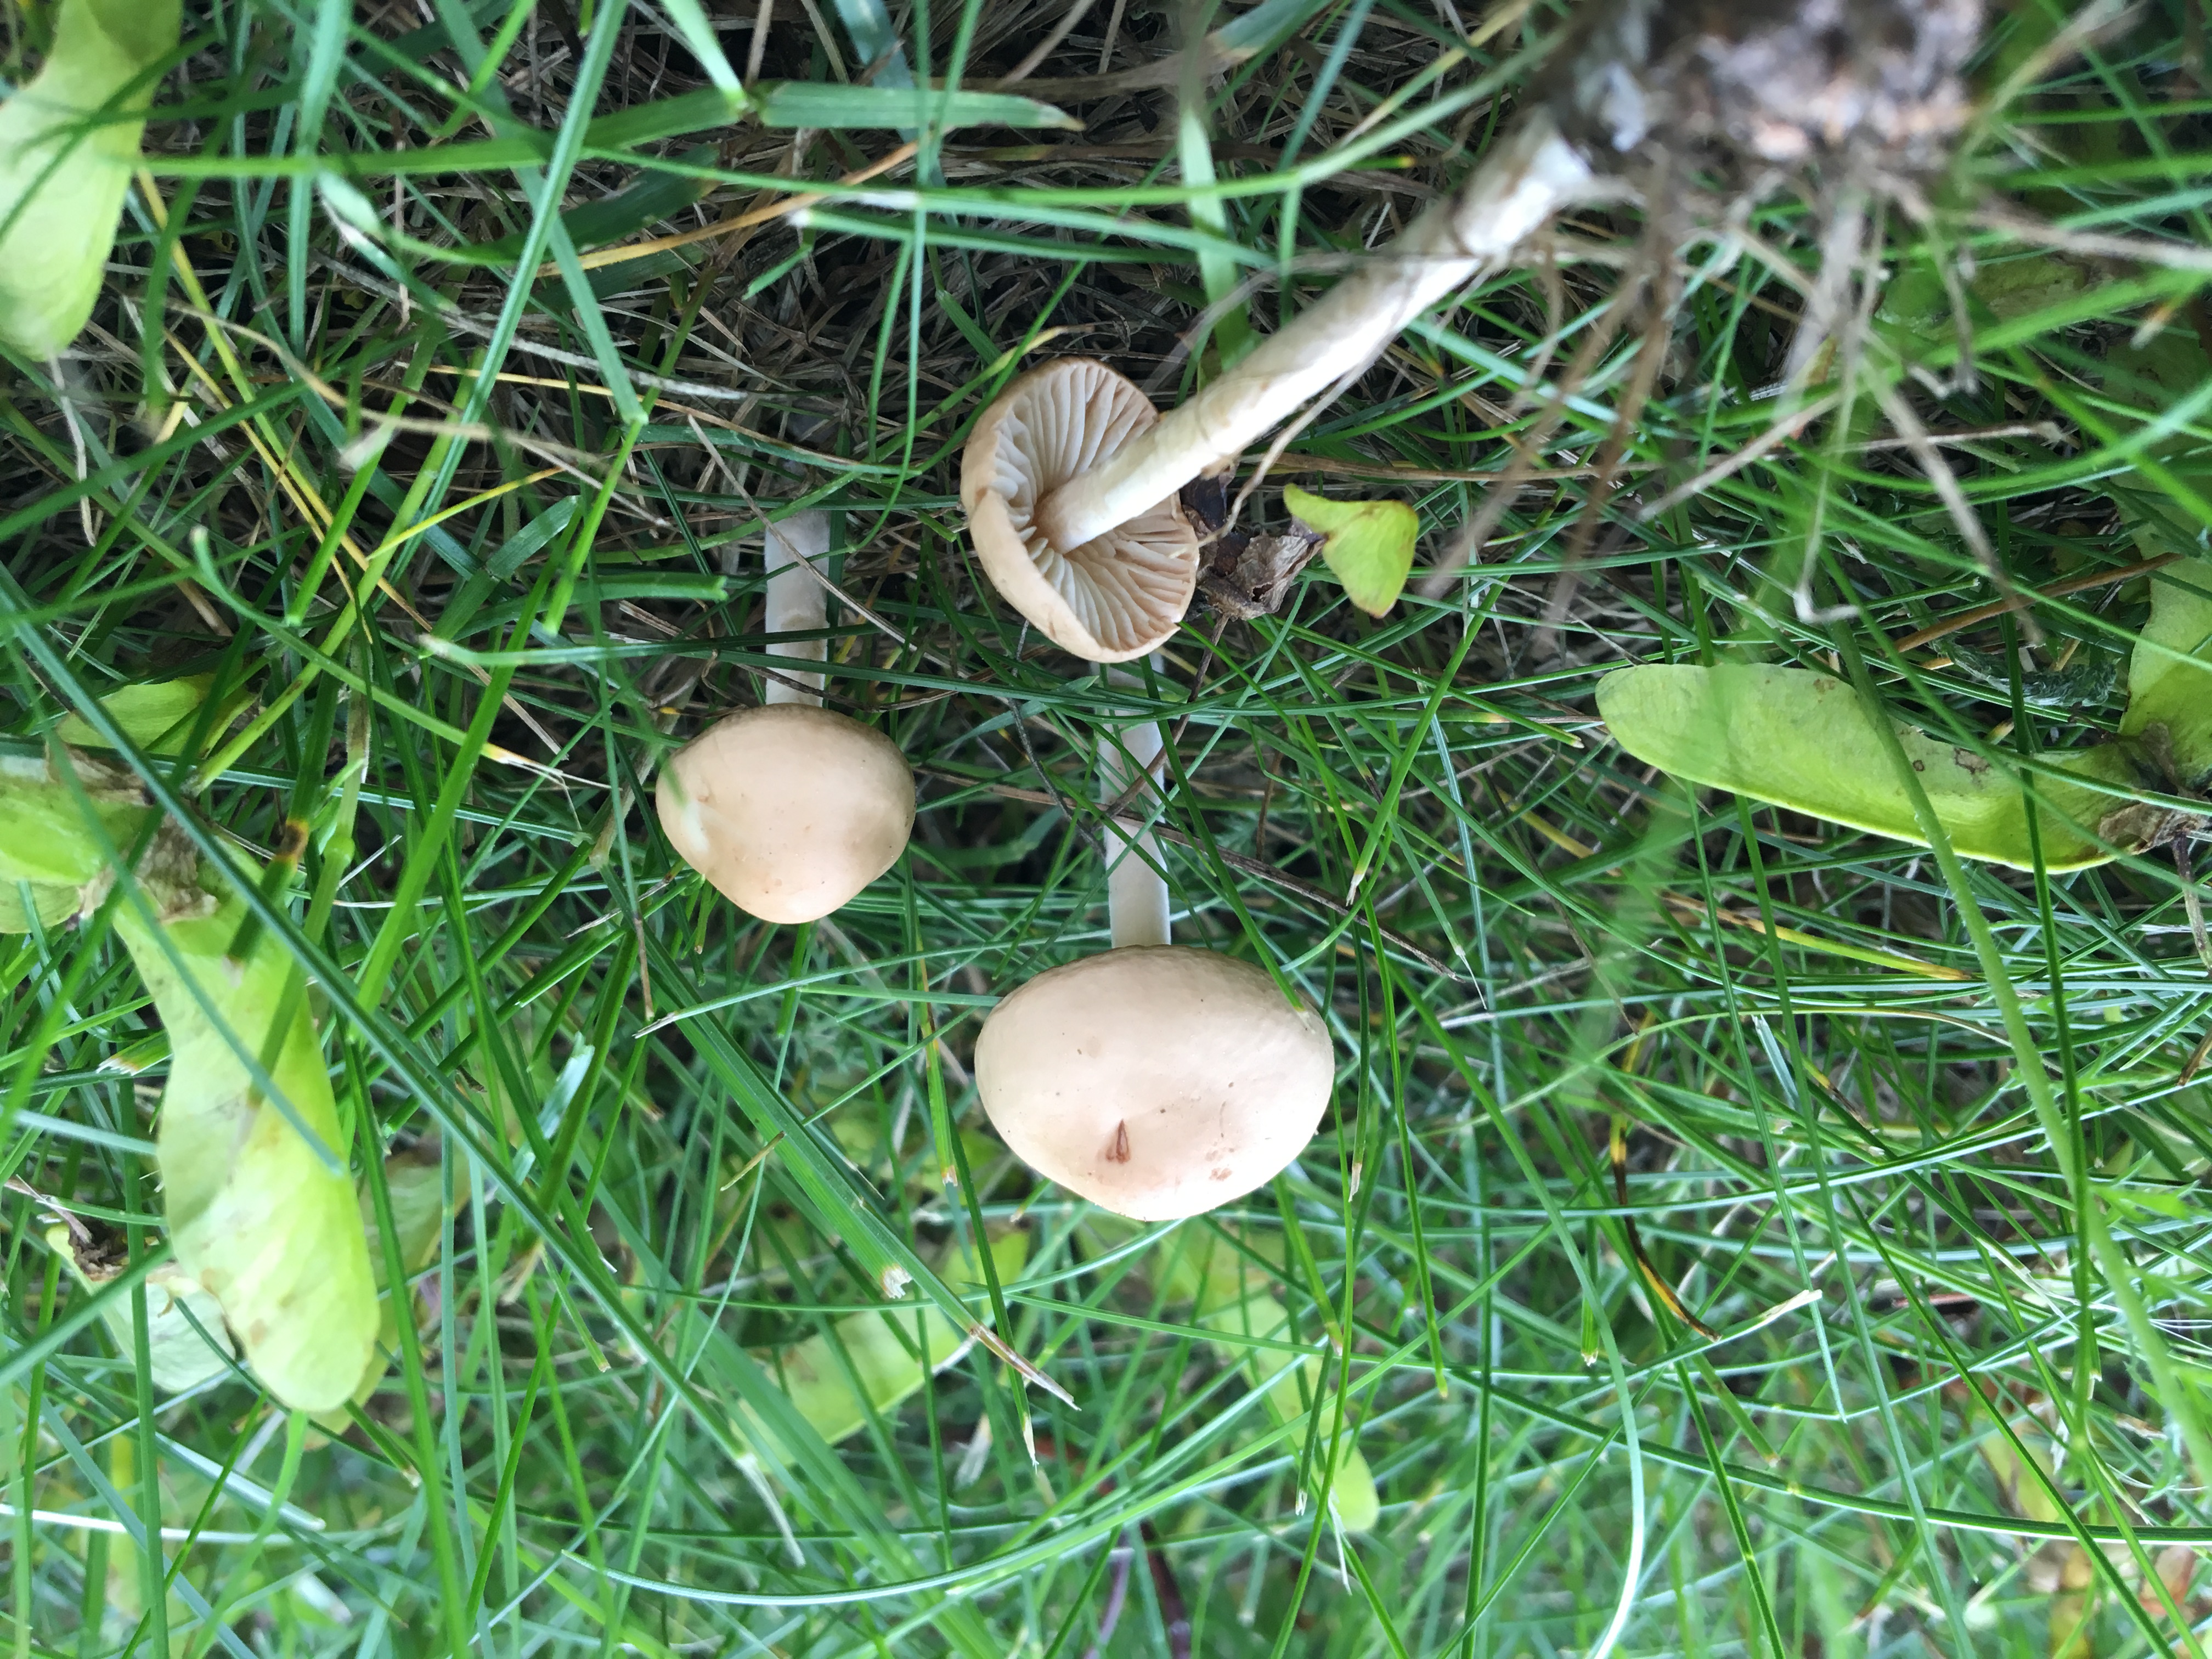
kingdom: Fungi
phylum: Basidiomycota
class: Agaricomycetes
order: Agaricales
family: Marasmiaceae
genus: Marasmius
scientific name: Marasmius oreades
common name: Fairy ring champignon
